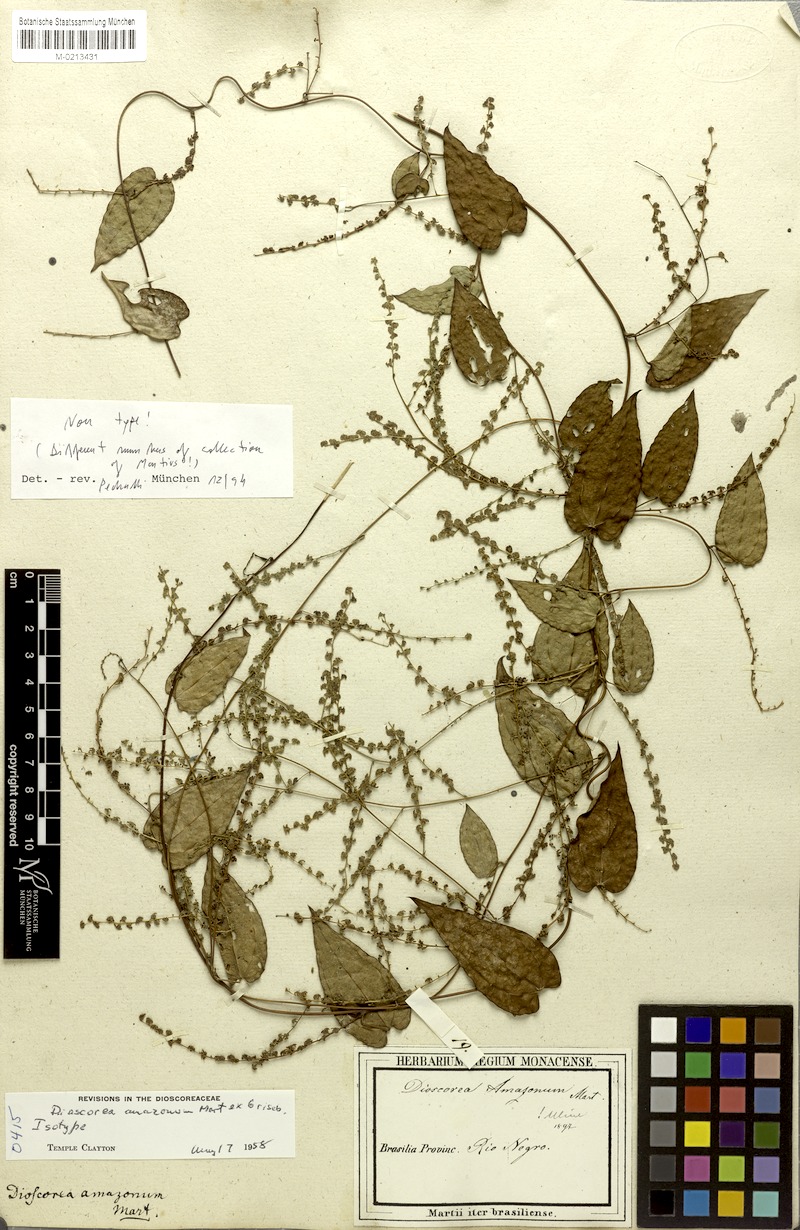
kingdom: Plantae
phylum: Tracheophyta
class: Liliopsida
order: Dioscoreales
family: Dioscoreaceae
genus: Dioscorea
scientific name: Dioscorea amazonum
